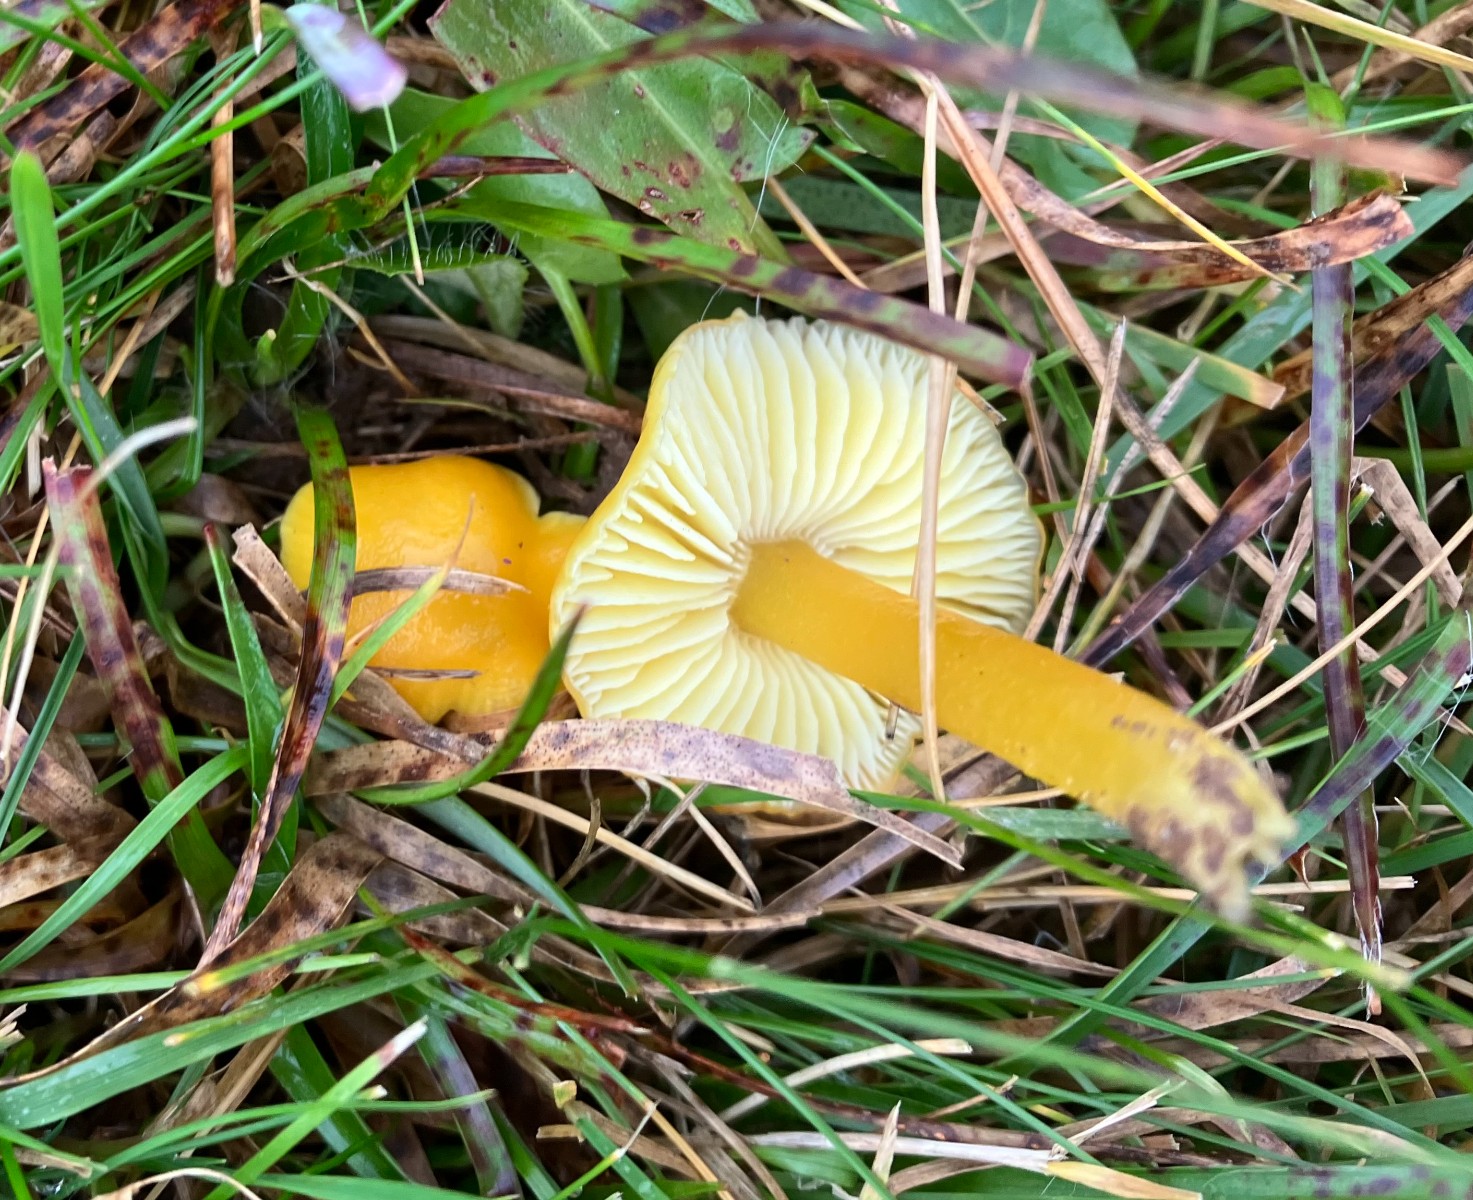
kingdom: Fungi
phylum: Basidiomycota
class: Agaricomycetes
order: Agaricales
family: Hygrophoraceae
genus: Hygrocybe
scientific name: Hygrocybe chlorophana
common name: gul vokshat
